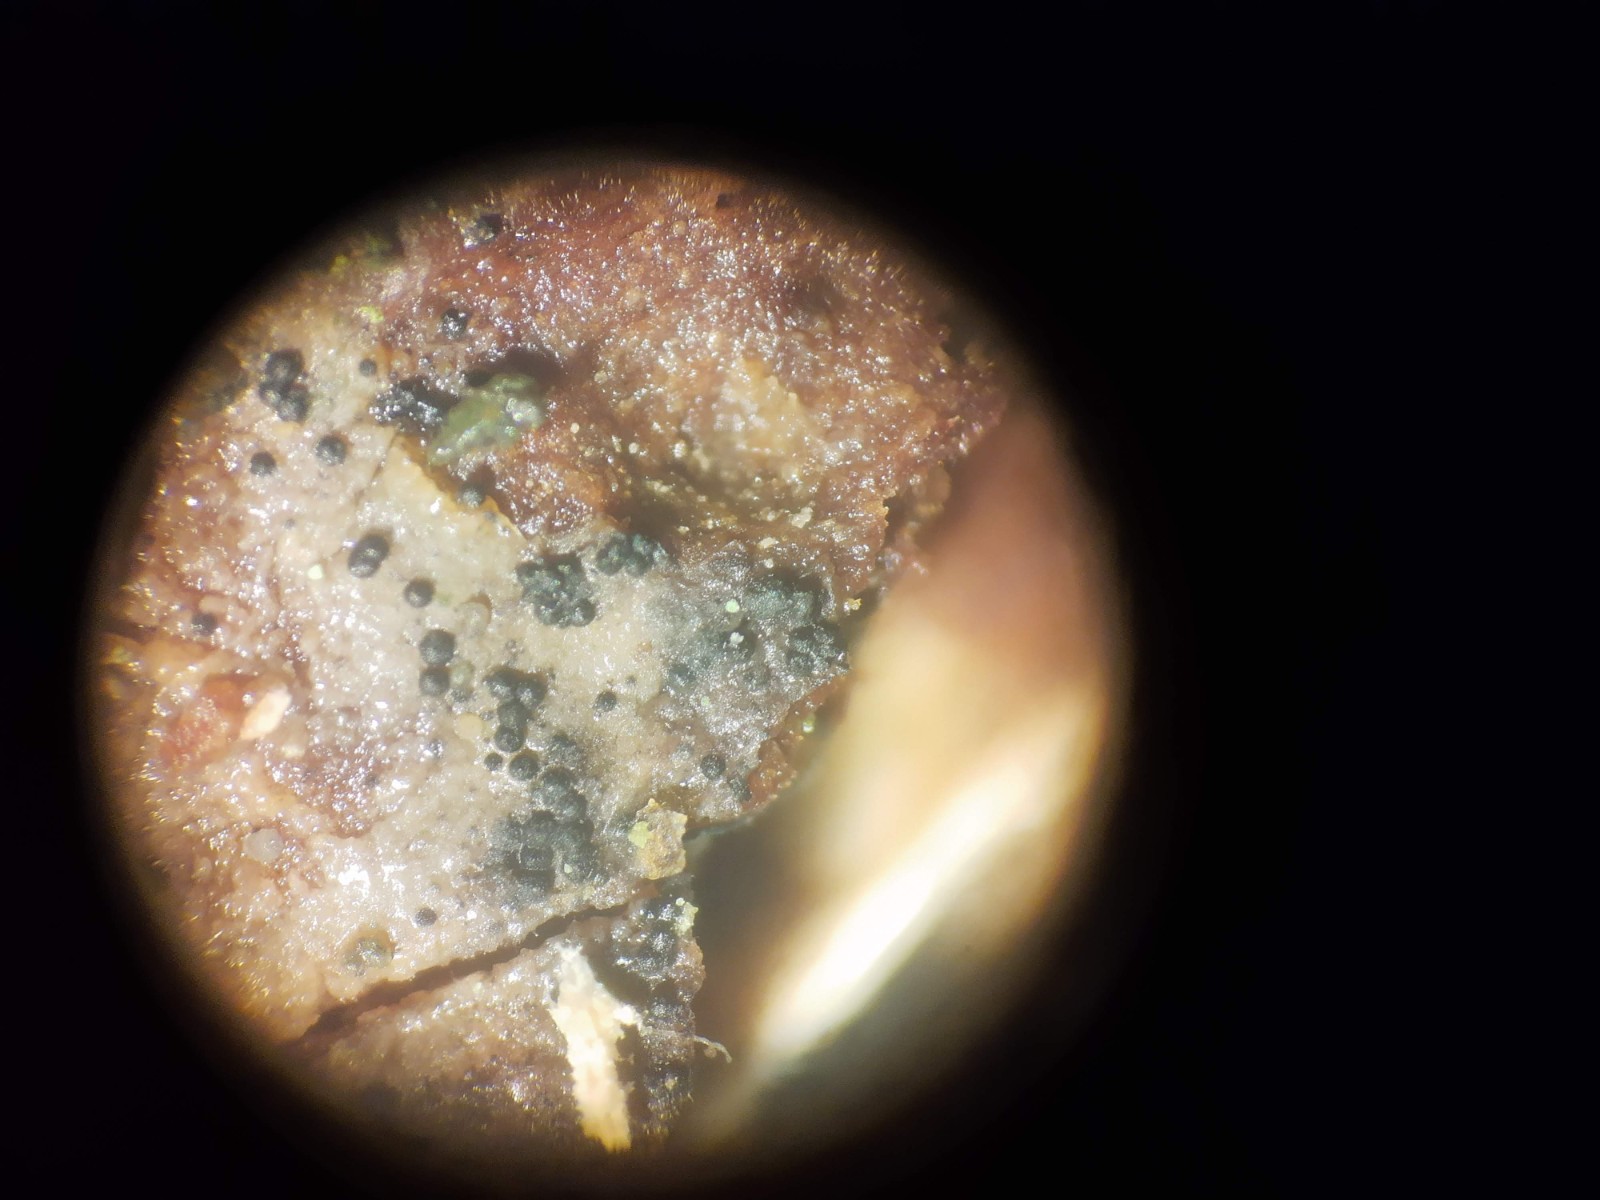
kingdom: Fungi
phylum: Ascomycota
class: Sordariomycetes
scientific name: Sordariomycetes
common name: kernesvampklassen
